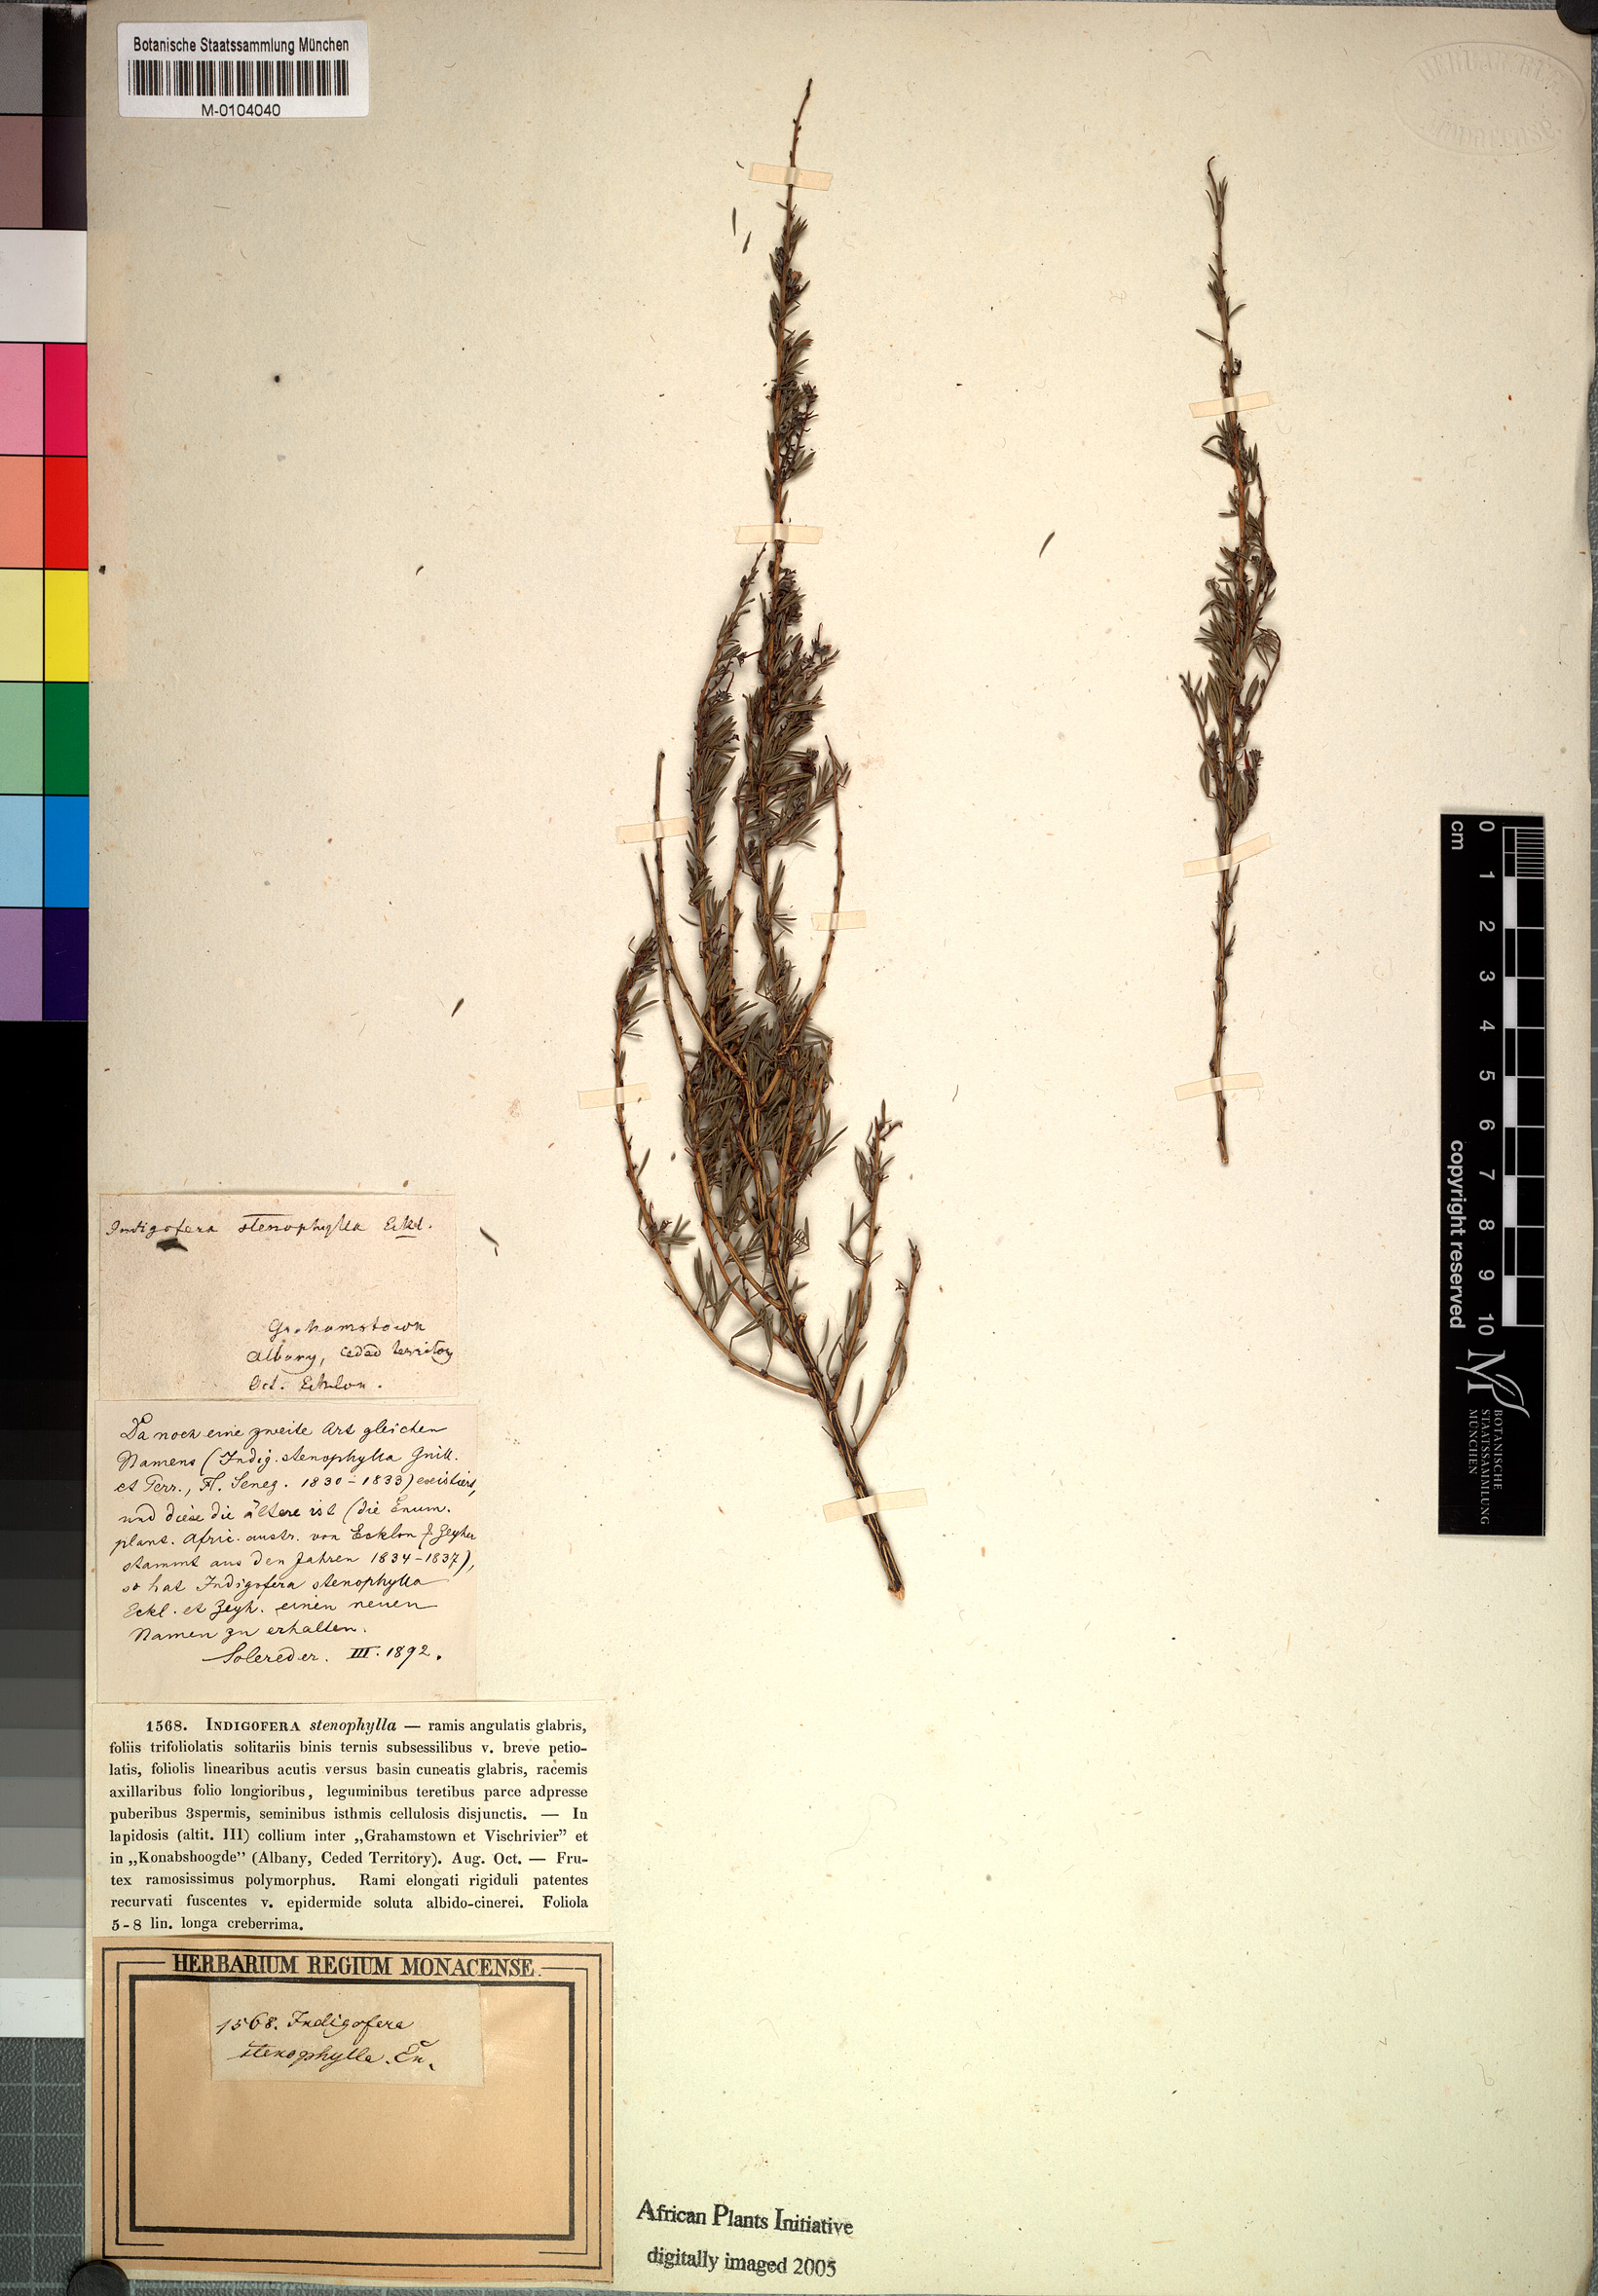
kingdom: Plantae
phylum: Tracheophyta
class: Magnoliopsida
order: Fabales
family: Fabaceae
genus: Indigofera
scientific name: Indigofera angustata
